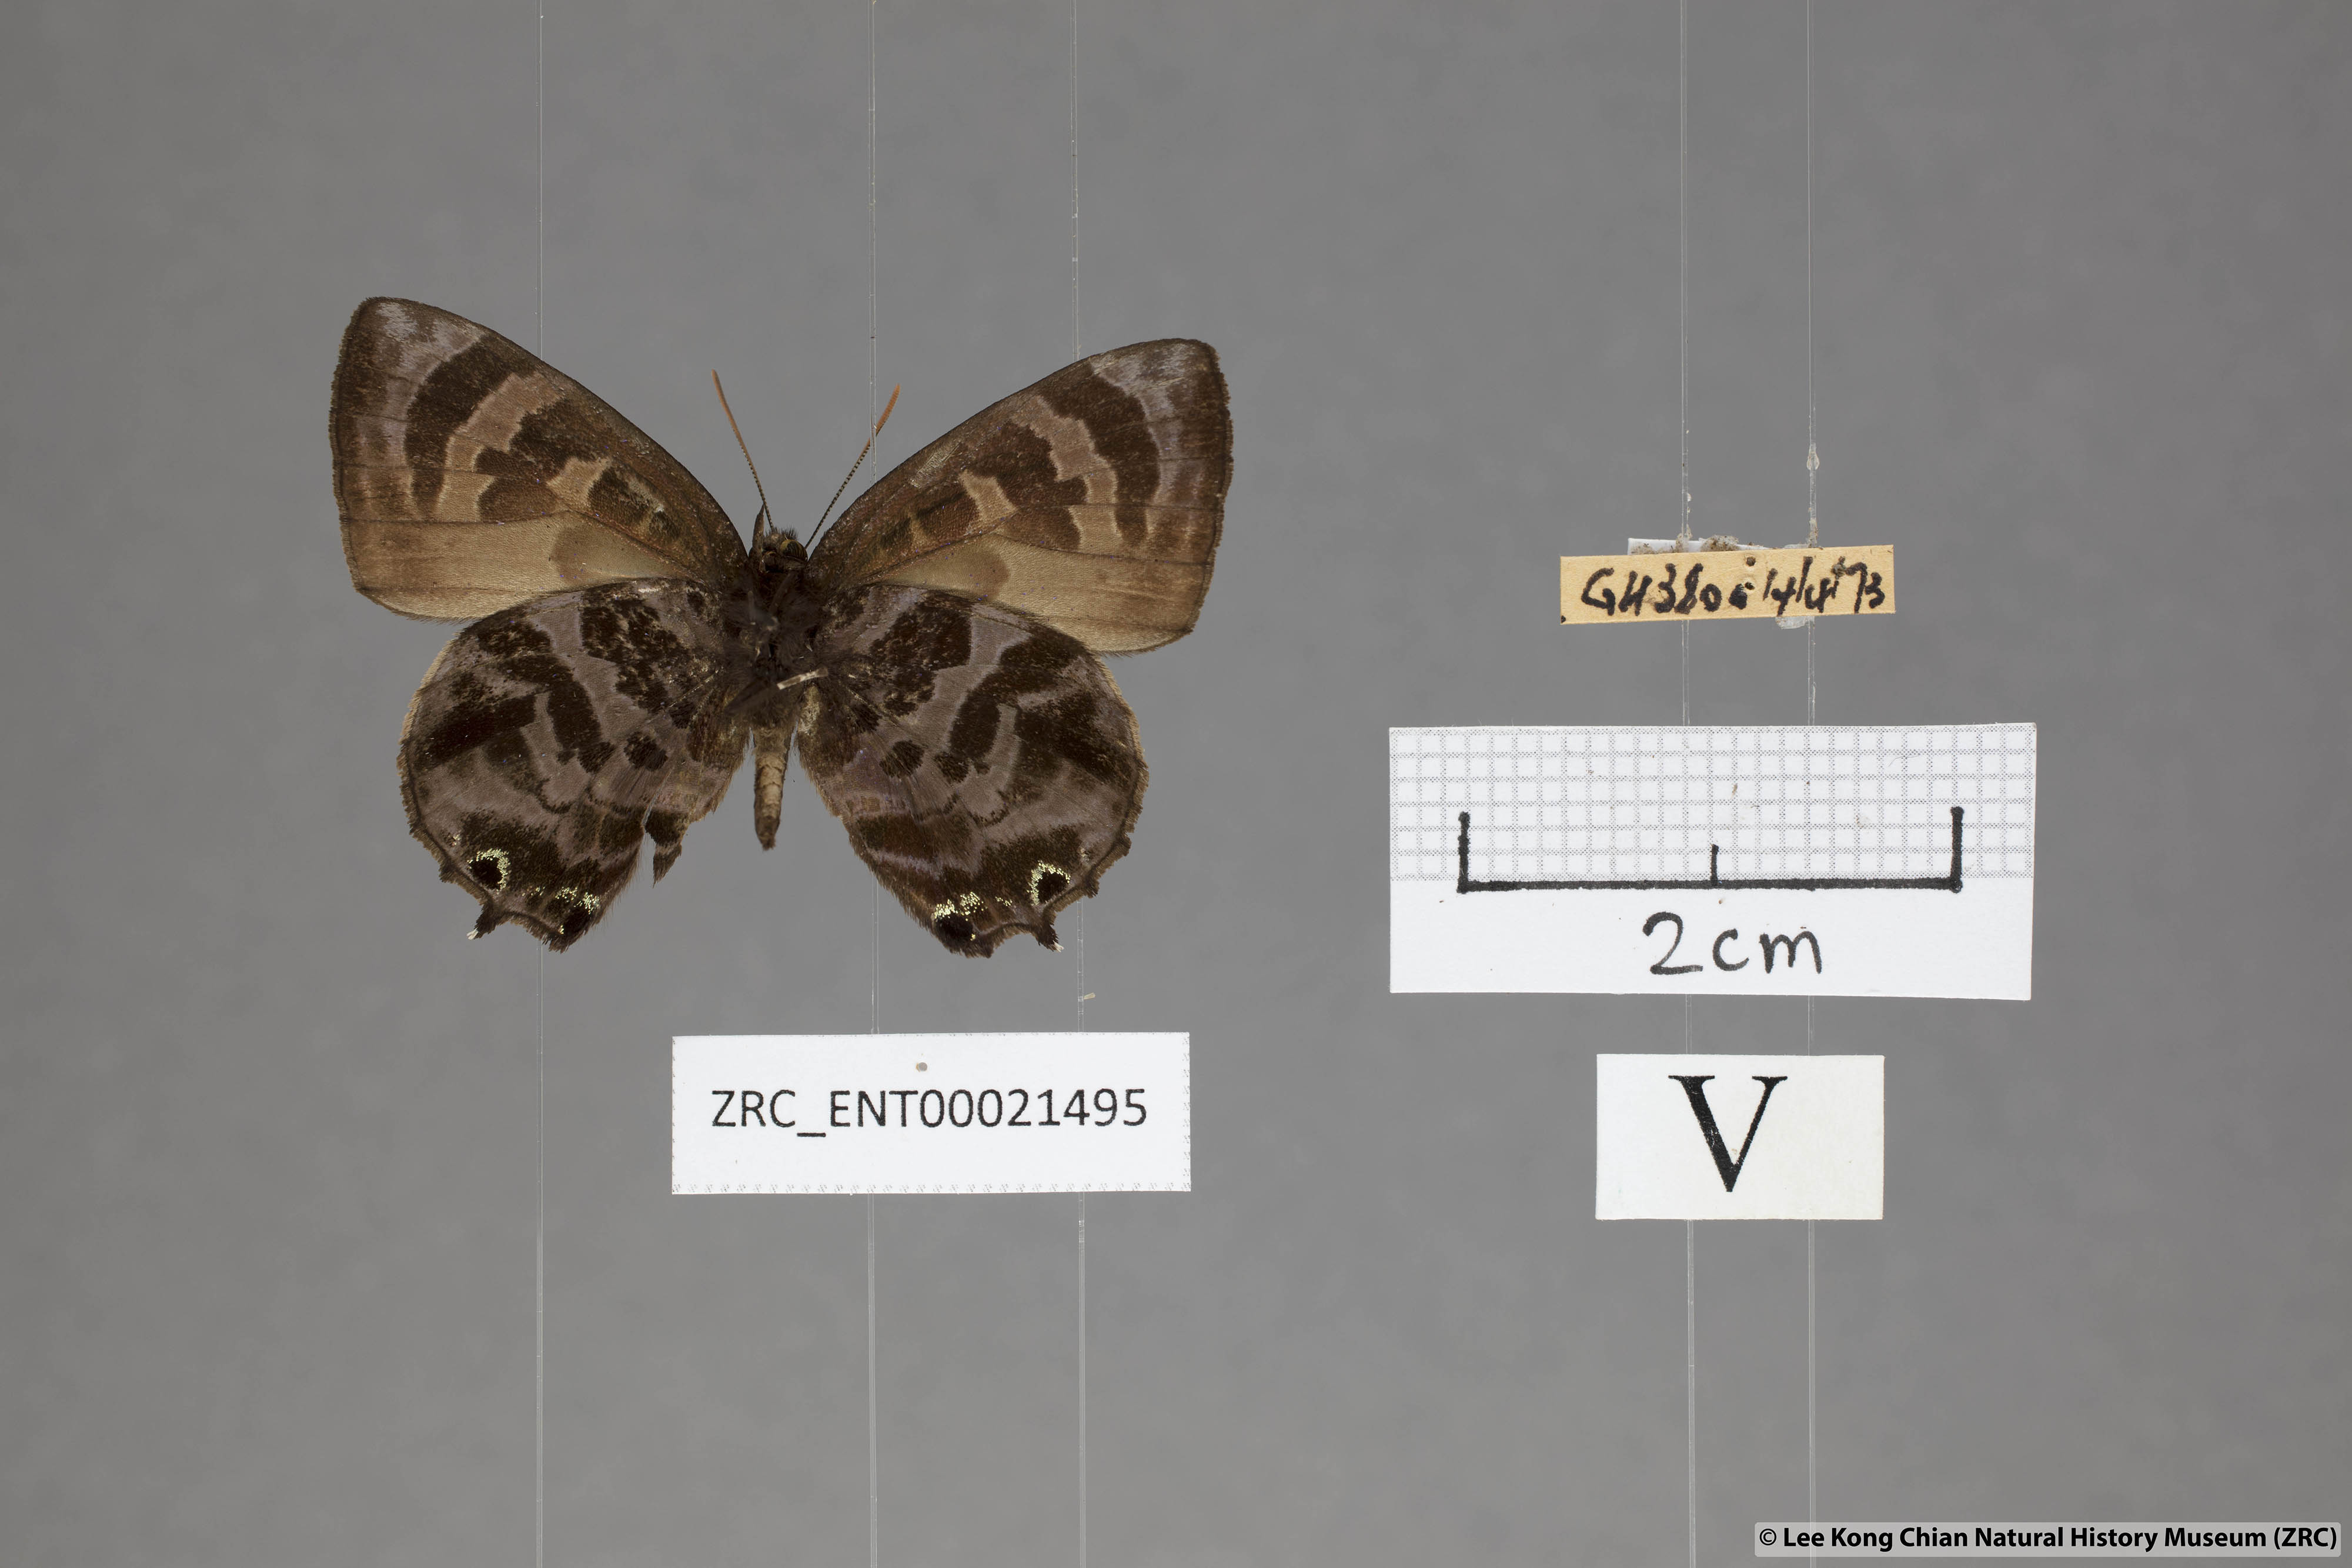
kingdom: Animalia
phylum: Arthropoda
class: Insecta
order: Lepidoptera
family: Lycaenidae
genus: Flos
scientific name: Flos
